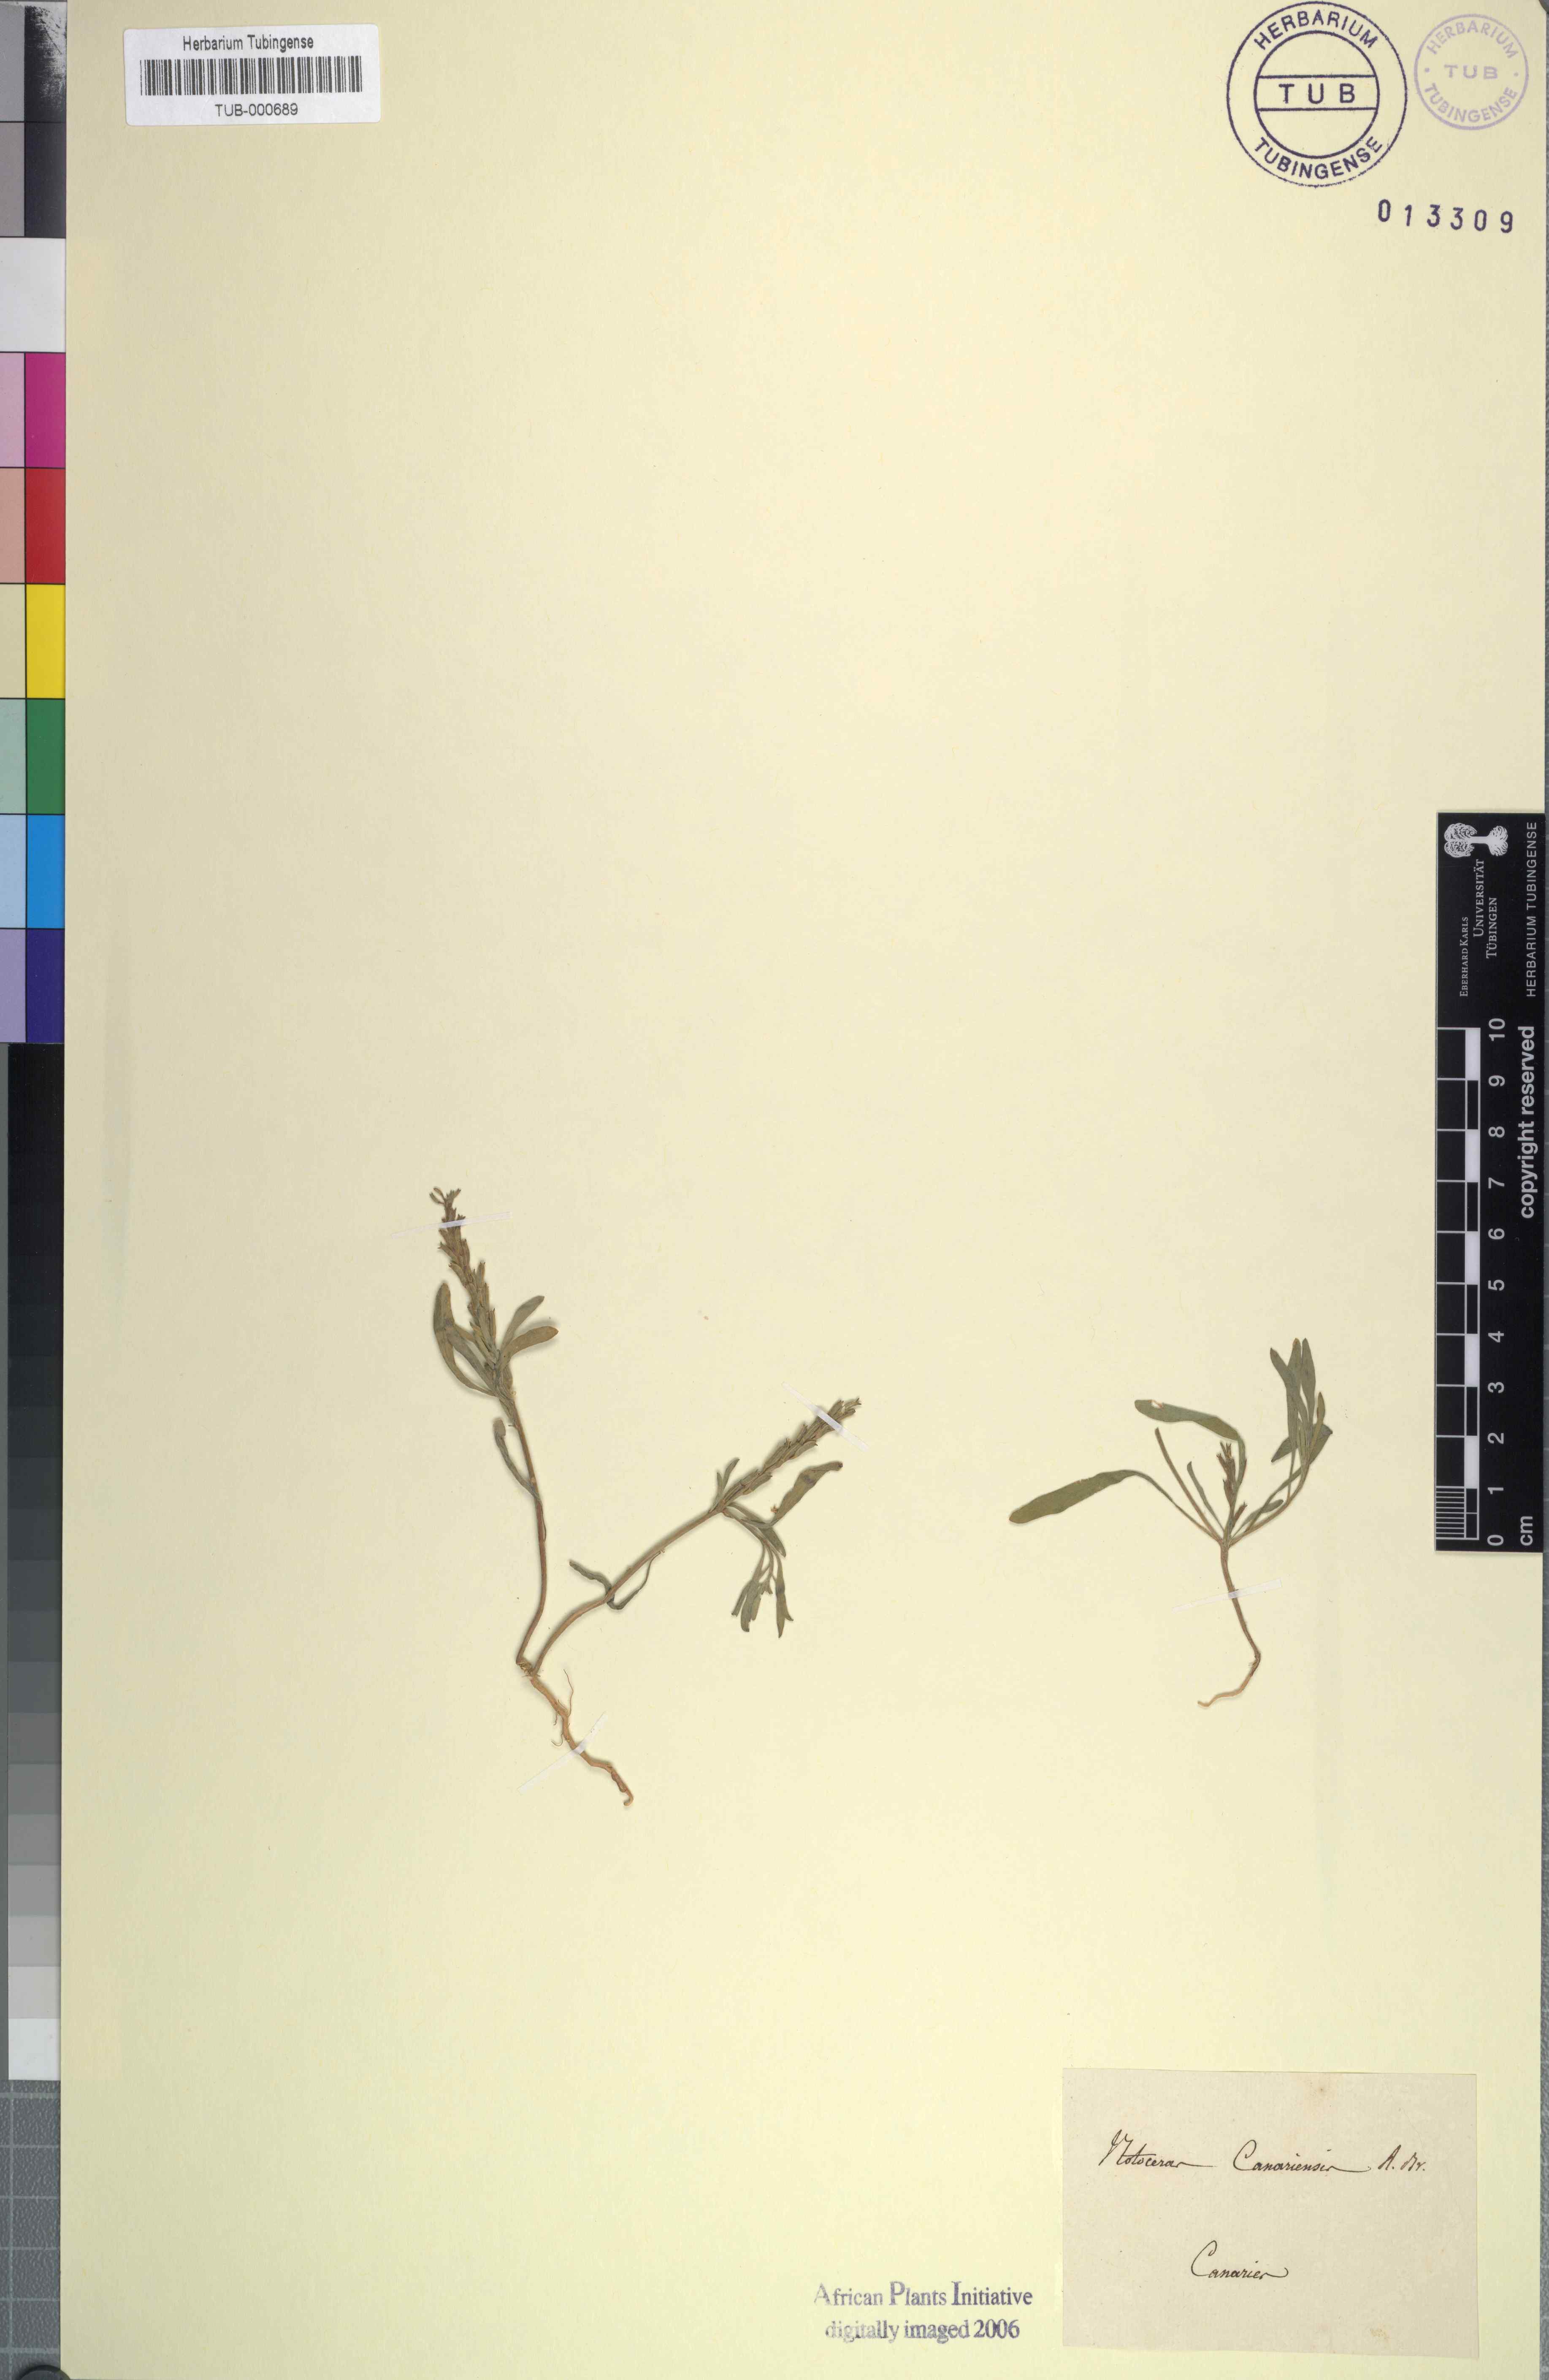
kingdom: Plantae
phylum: Tracheophyta
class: Magnoliopsida
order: Brassicales
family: Brassicaceae
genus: Notoceras
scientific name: Notoceras bicorne
